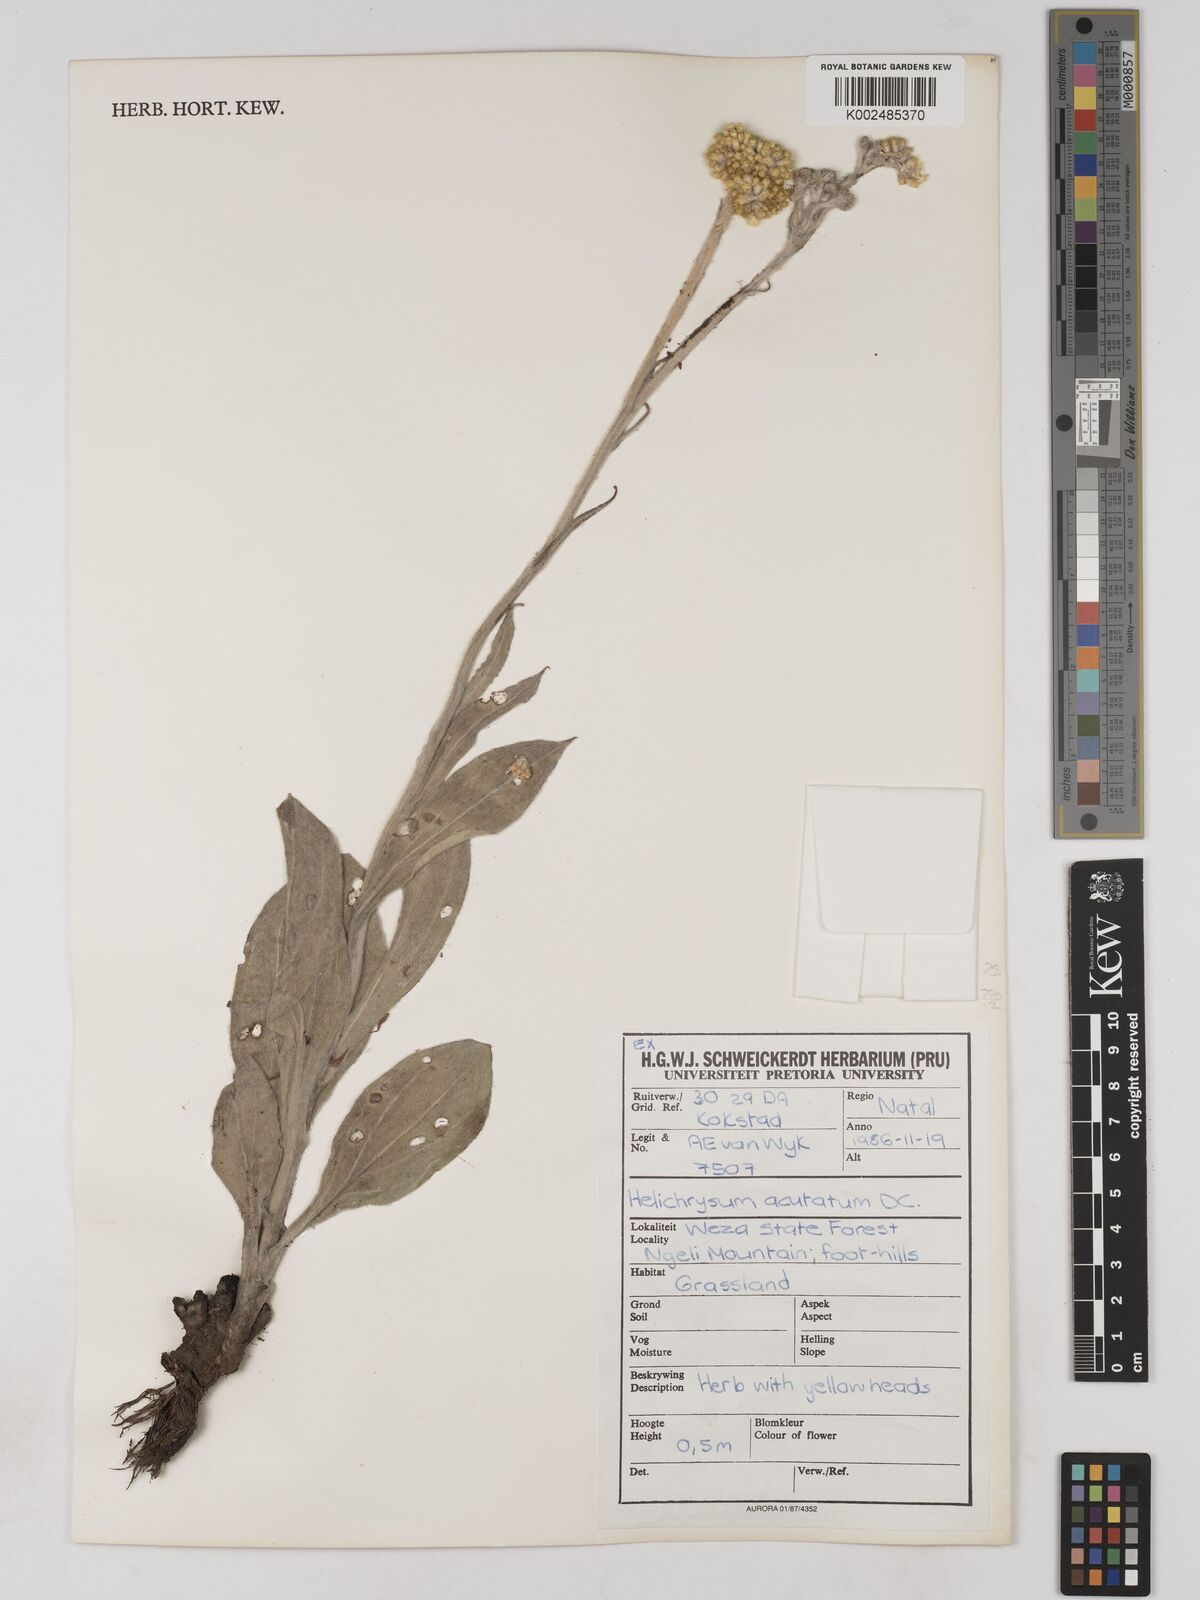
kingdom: Plantae
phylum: Tracheophyta
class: Magnoliopsida
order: Asterales
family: Asteraceae
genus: Helichrysum
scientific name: Helichrysum acutatum
